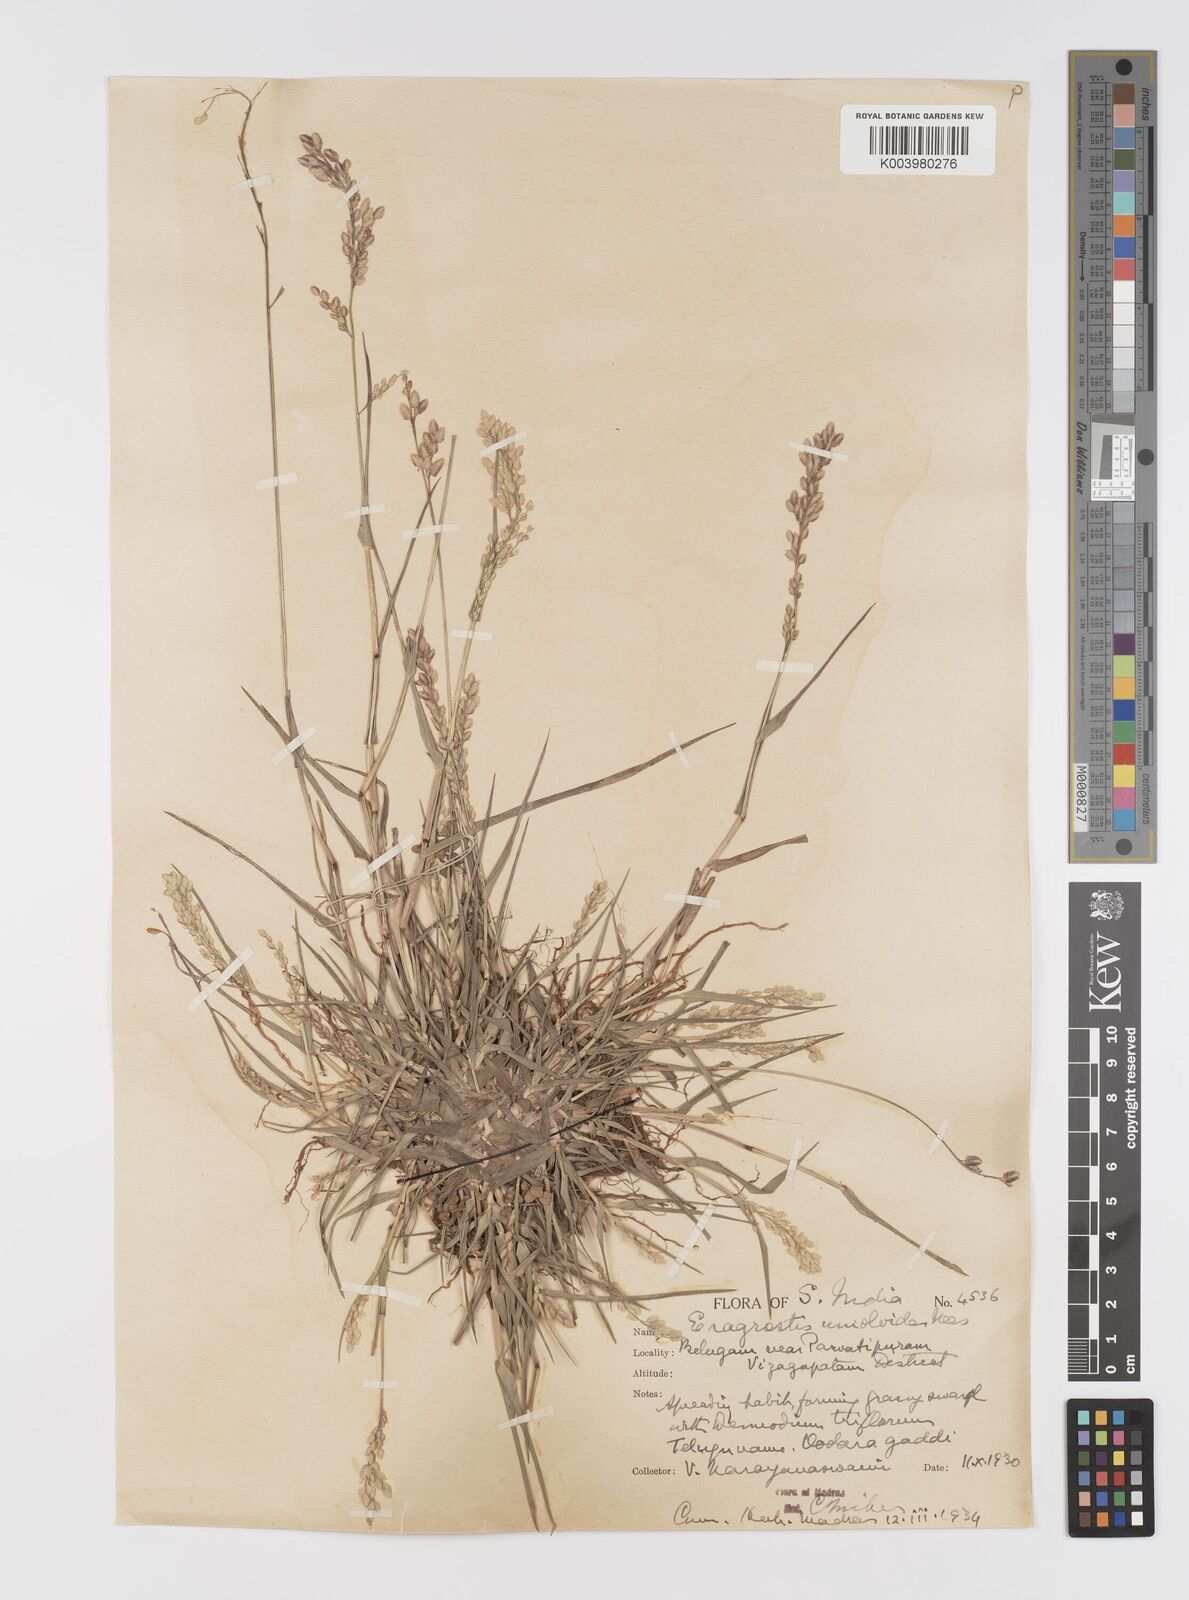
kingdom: Plantae
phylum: Tracheophyta
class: Liliopsida
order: Poales
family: Poaceae
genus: Eragrostis
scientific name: Eragrostis unioloides
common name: Chinese lovegrass
